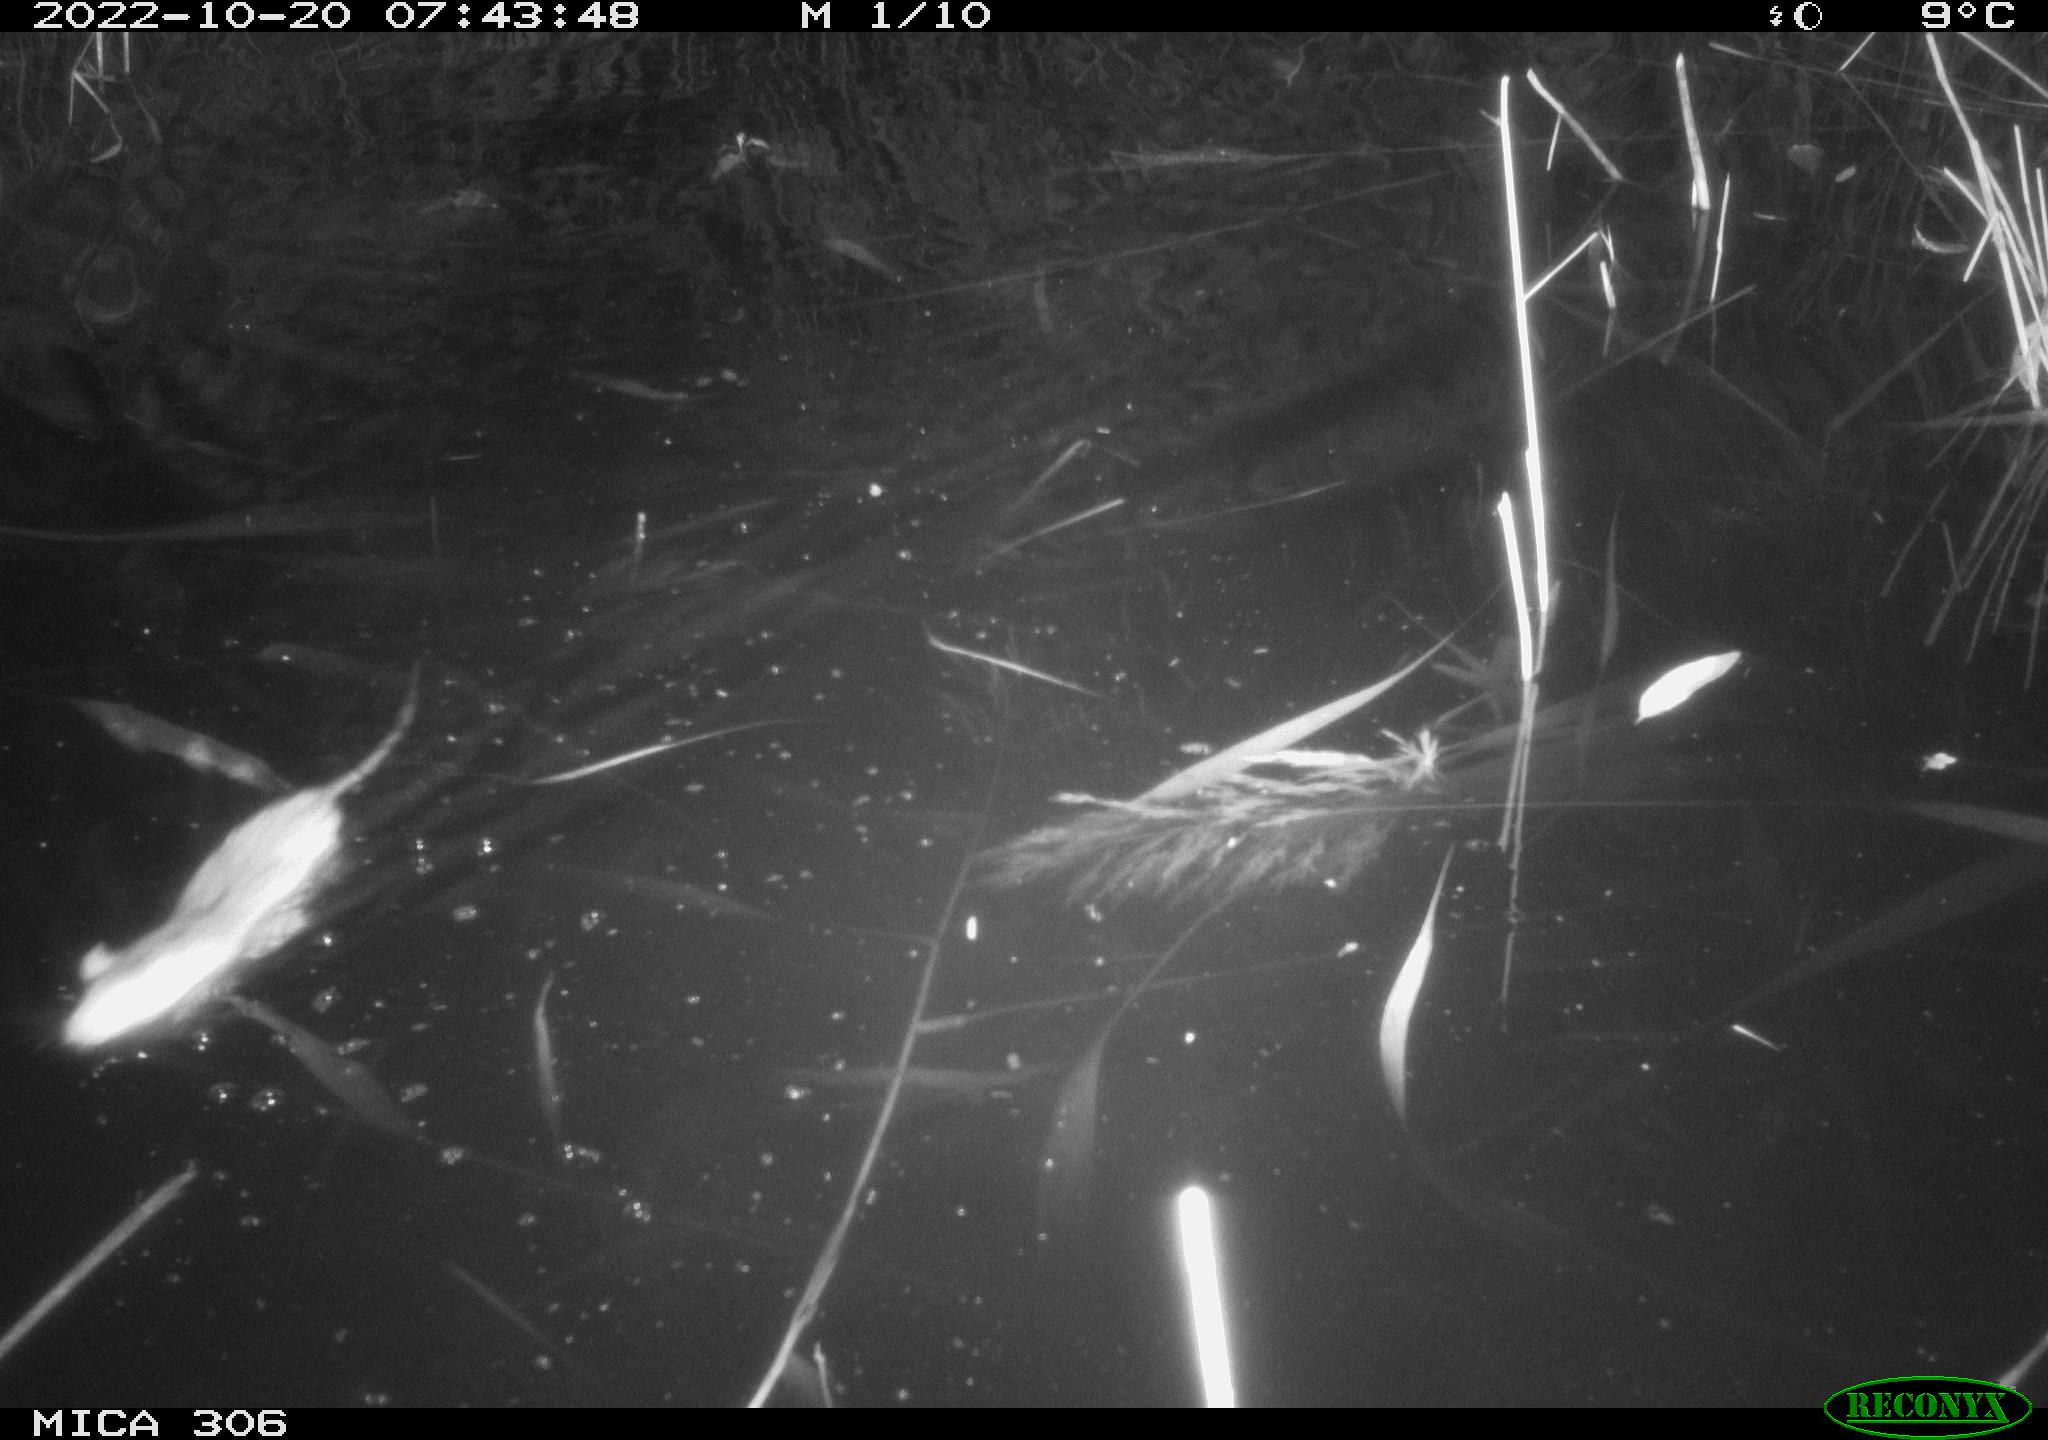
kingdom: Animalia
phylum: Chordata
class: Mammalia
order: Rodentia
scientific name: Rodentia
